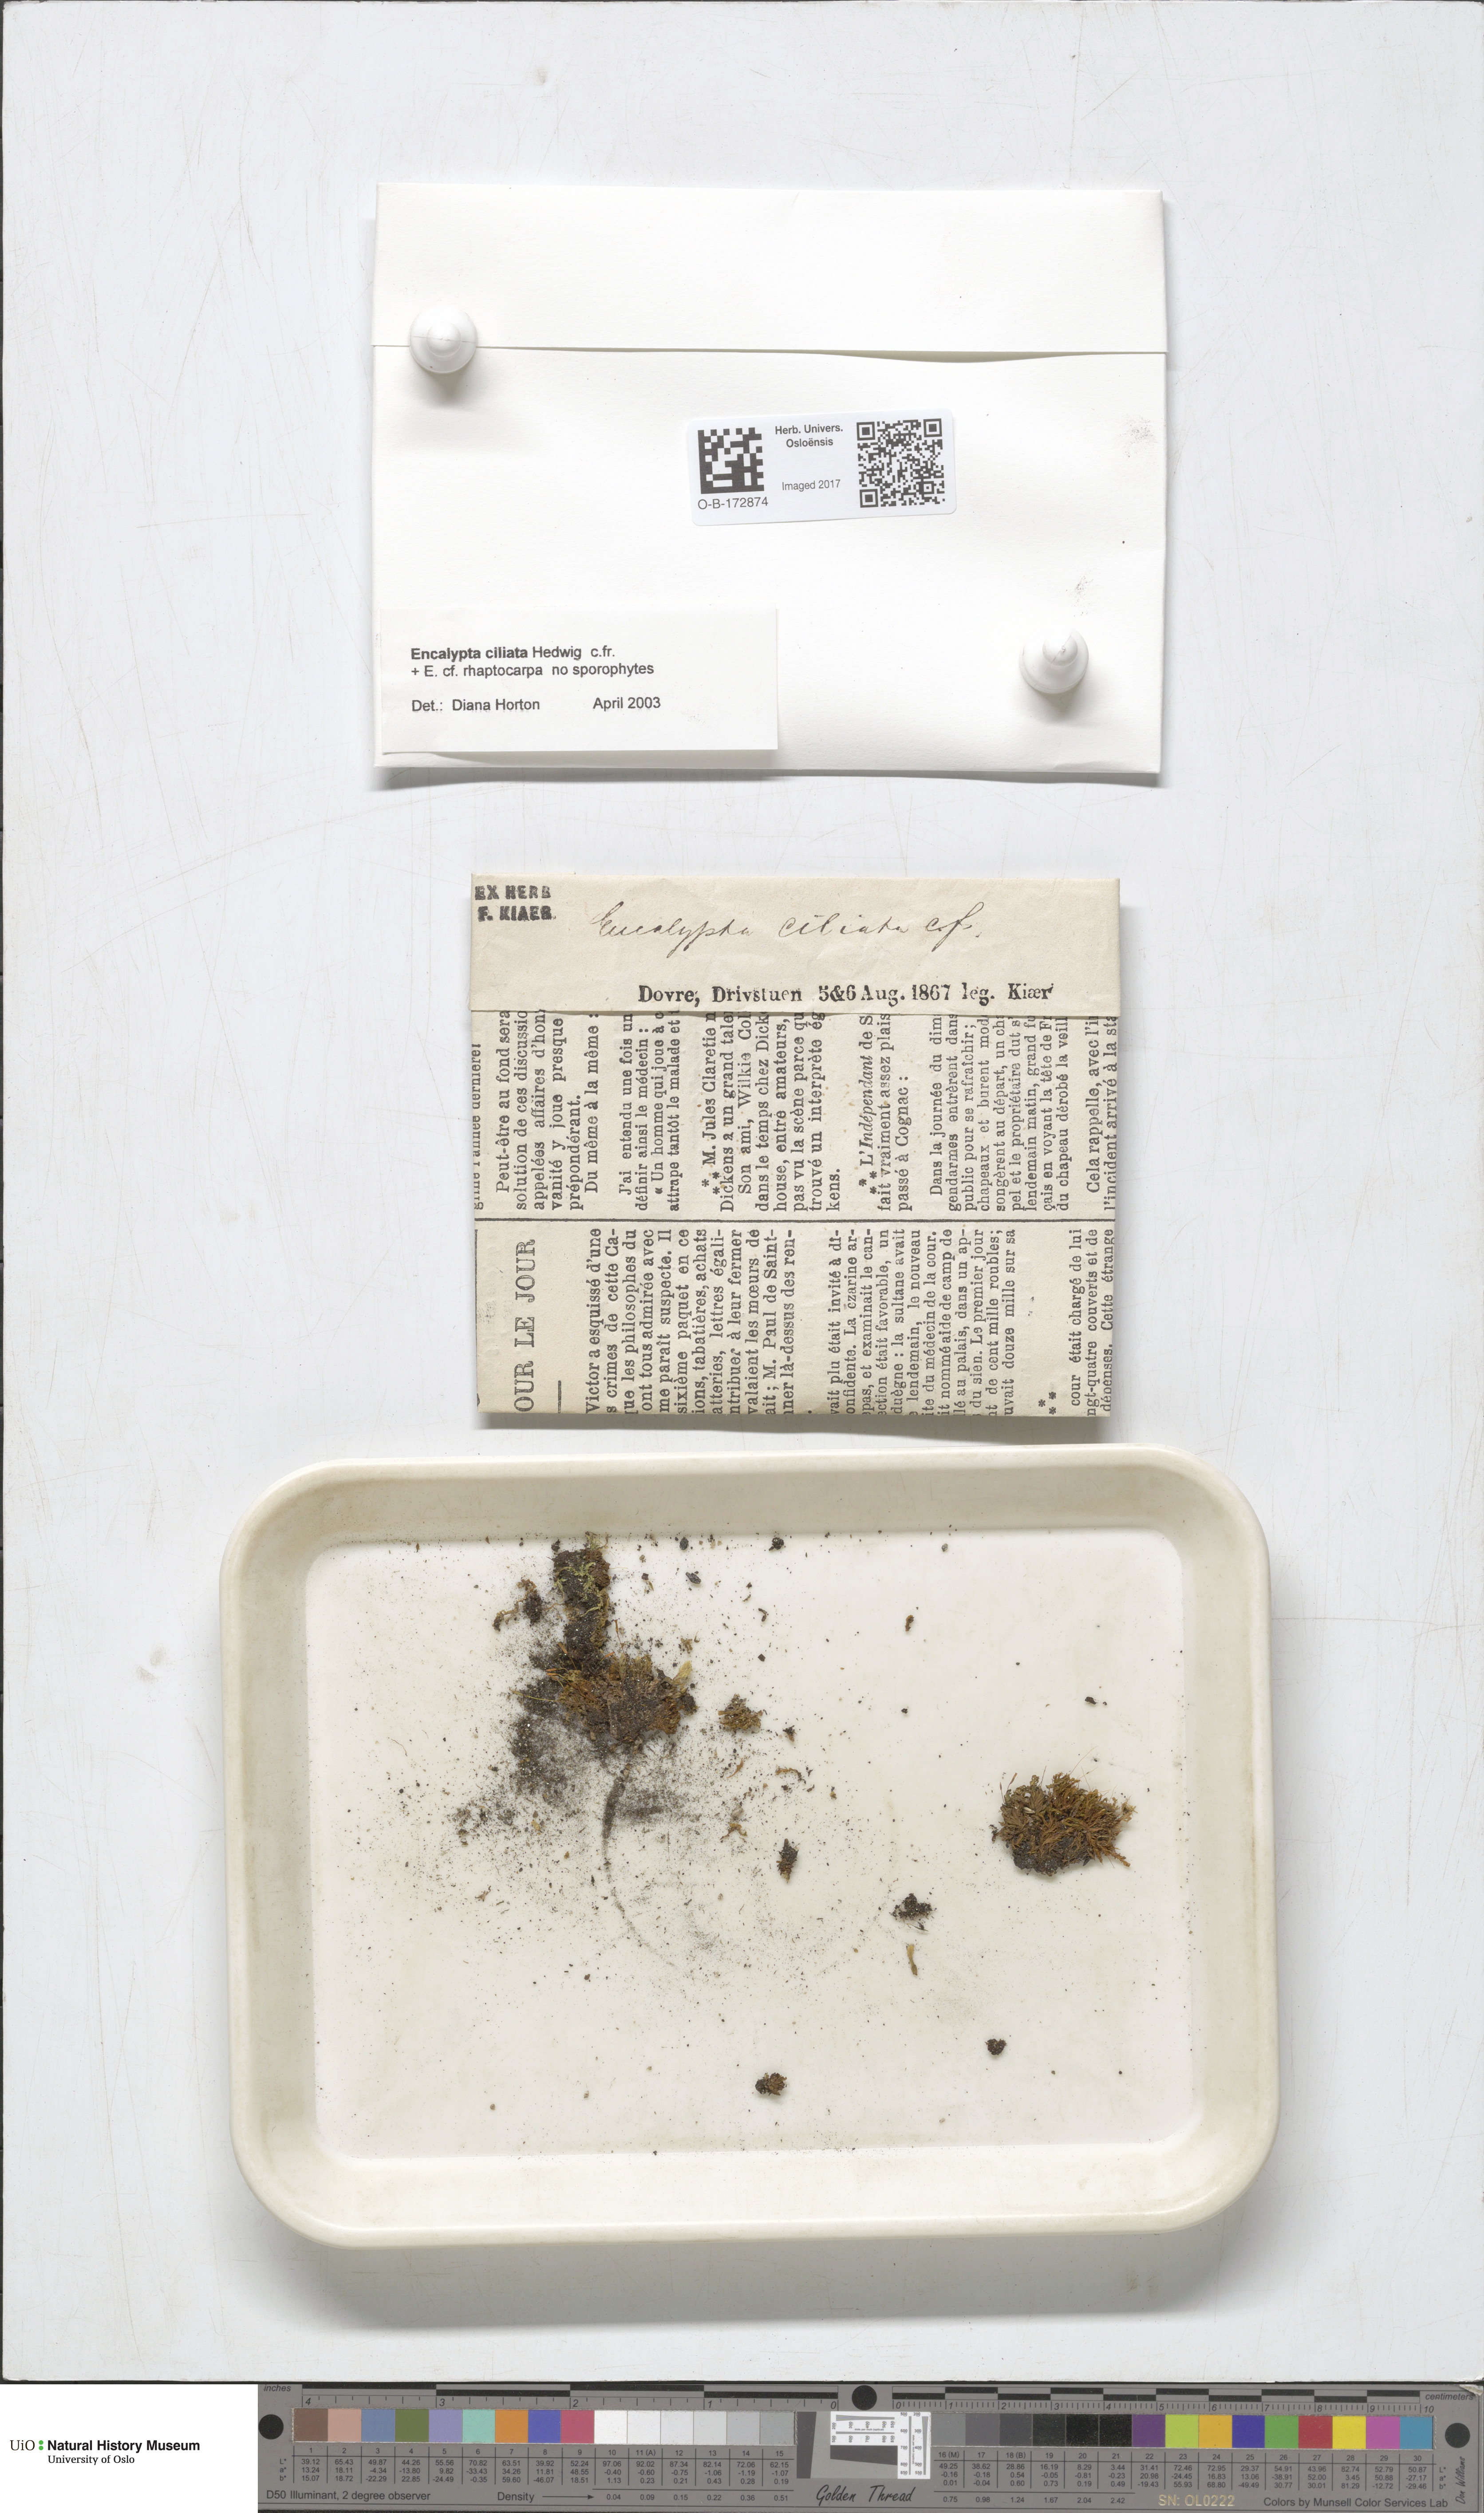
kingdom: Plantae
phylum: Bryophyta
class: Bryopsida
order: Encalyptales
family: Encalyptaceae
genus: Encalypta
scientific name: Encalypta ciliata
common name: Fringed extinguisher-moss
